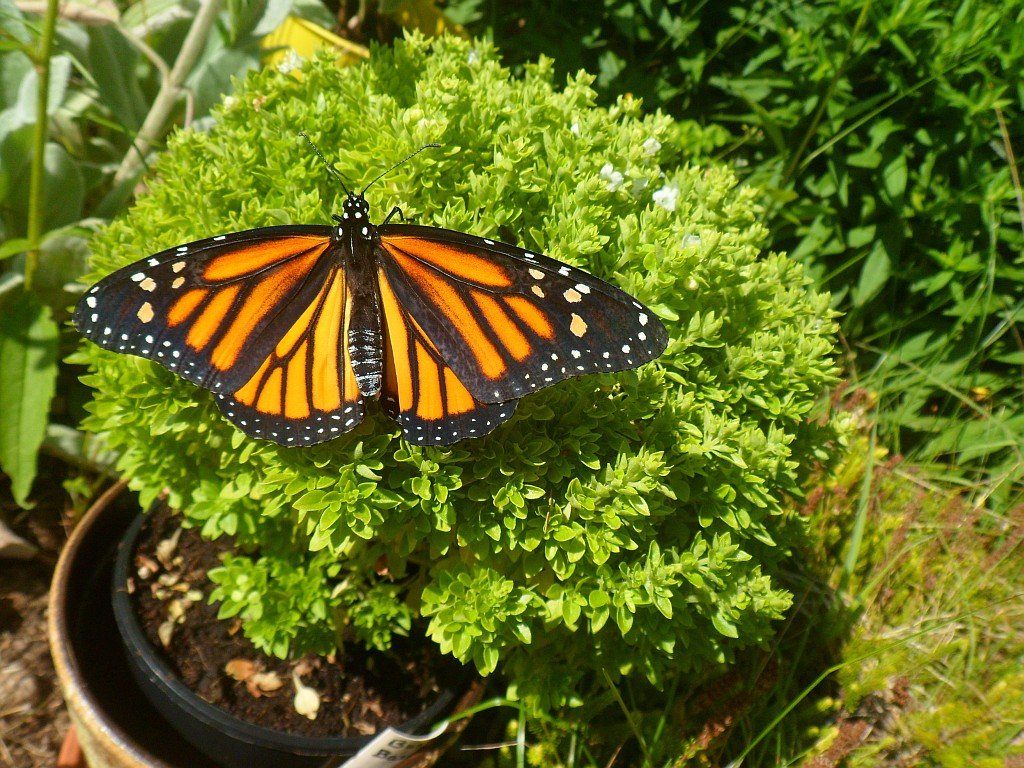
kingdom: Animalia
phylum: Arthropoda
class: Insecta
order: Lepidoptera
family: Nymphalidae
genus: Danaus
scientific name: Danaus plexippus
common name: Monarch
